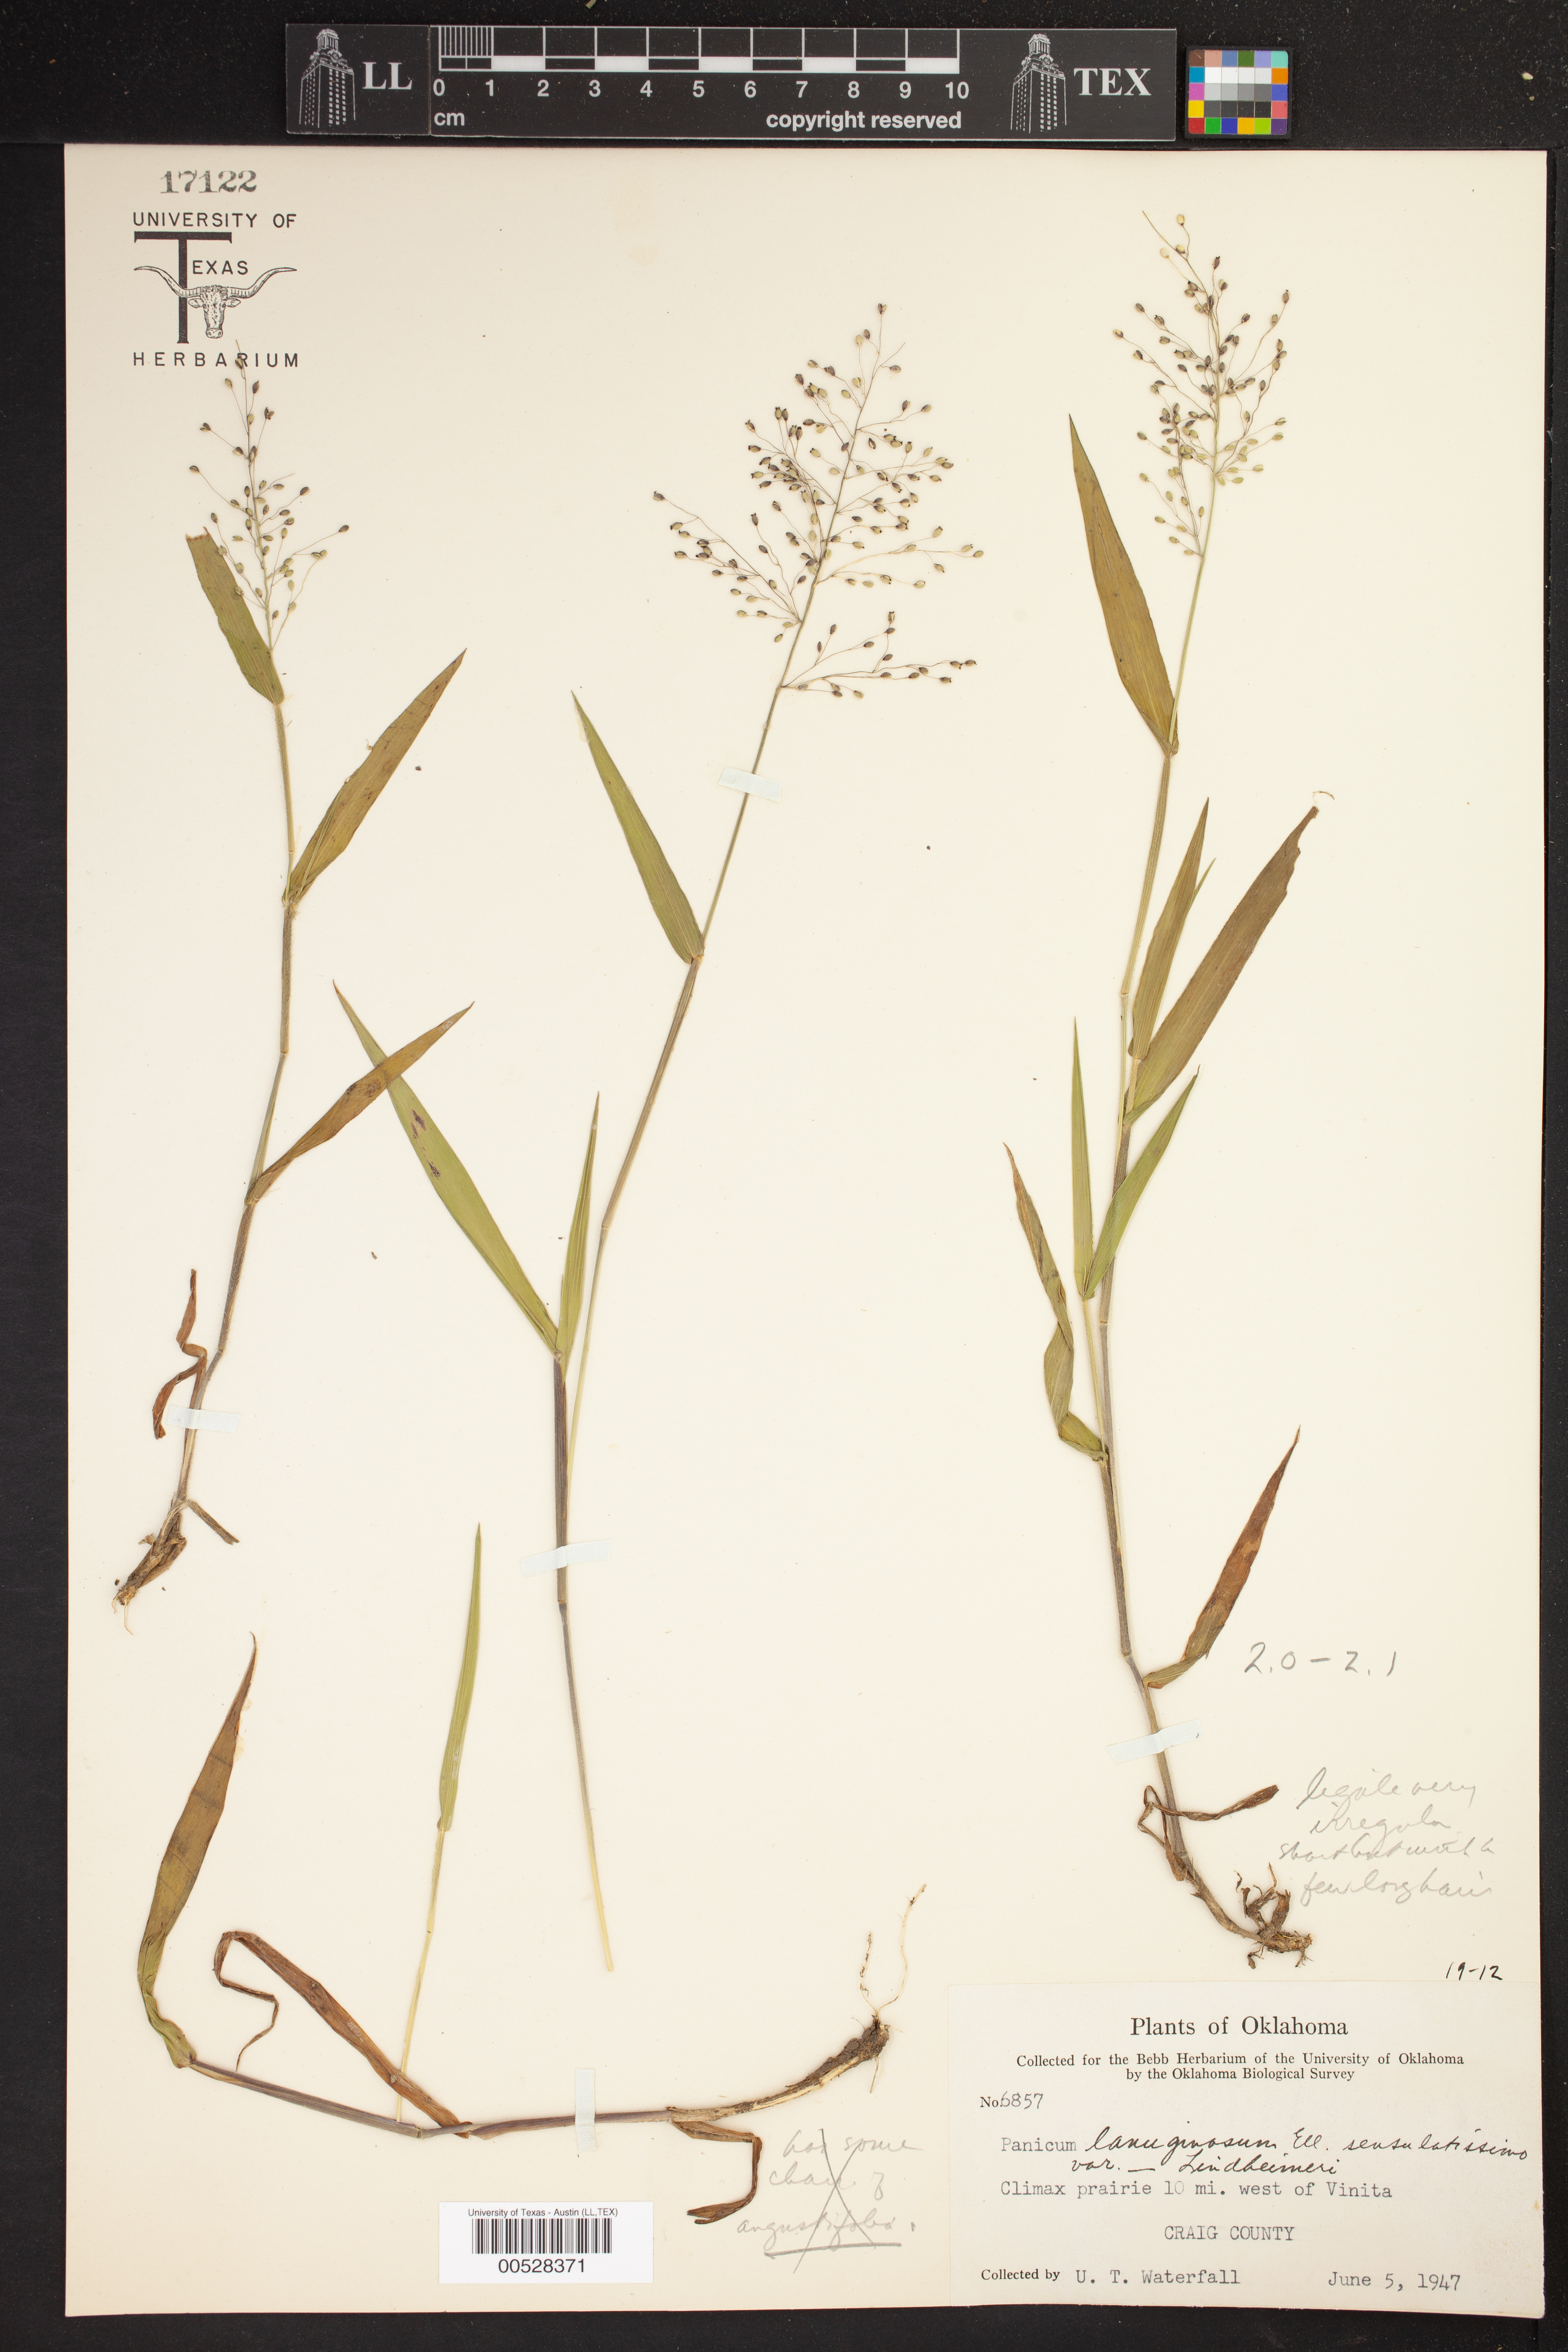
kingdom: Plantae
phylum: Tracheophyta
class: Liliopsida
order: Poales
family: Poaceae
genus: Dichanthelium
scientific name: Dichanthelium lindheimeri
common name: Lindheimer's panicgrass
